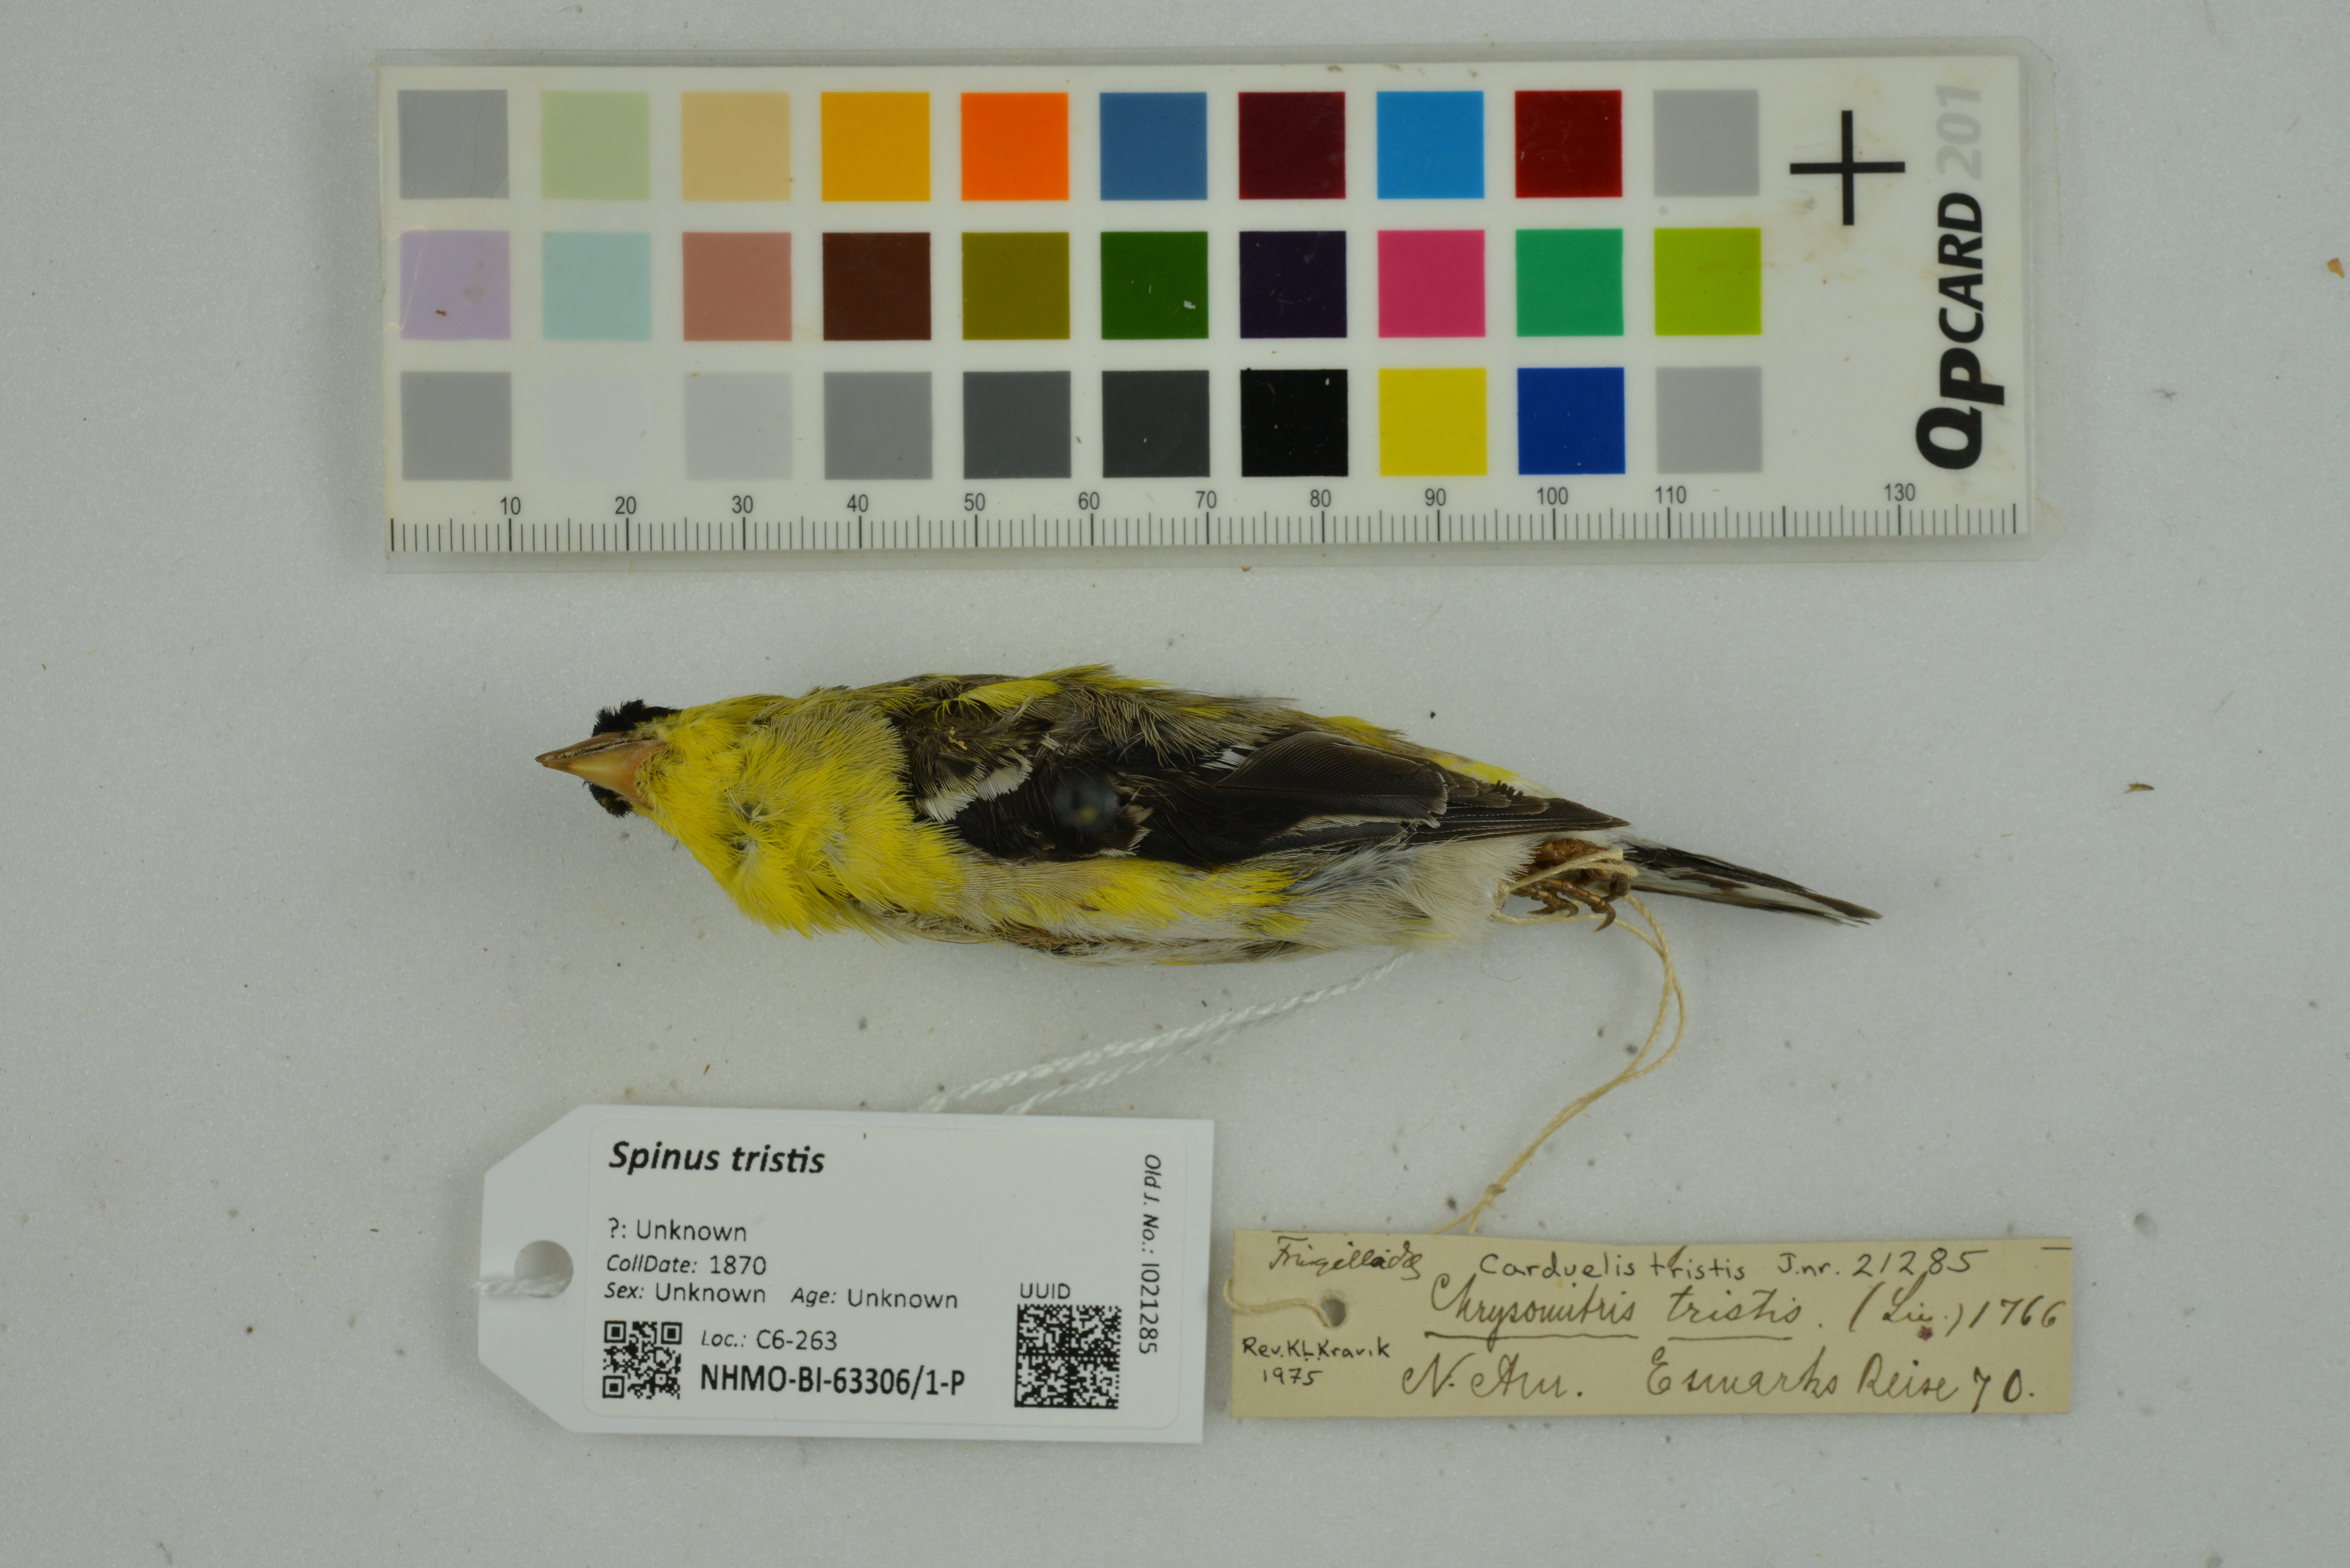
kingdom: Animalia
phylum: Chordata
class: Aves
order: Passeriformes
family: Fringillidae
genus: Spinus
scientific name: Spinus tristis
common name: American goldfinch
